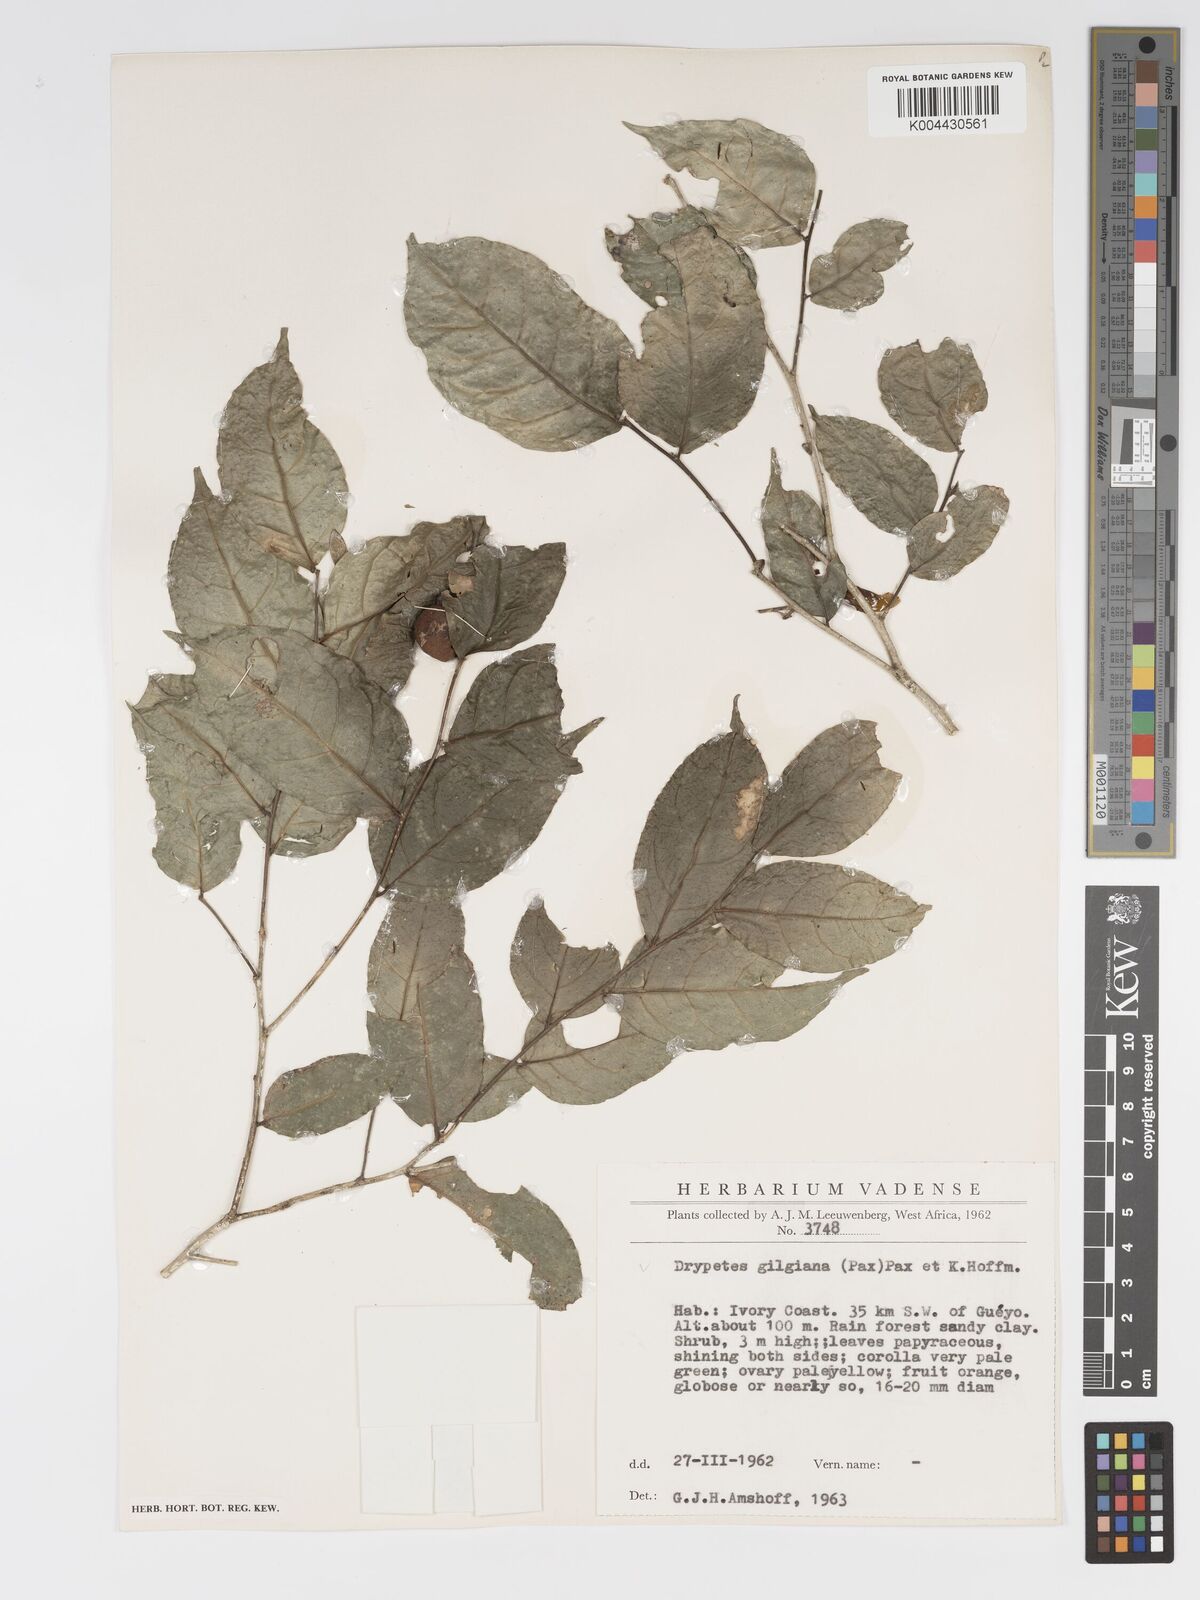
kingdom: Plantae
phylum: Tracheophyta
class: Magnoliopsida
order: Malpighiales
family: Putranjivaceae
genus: Drypetes
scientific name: Drypetes gilgiana
